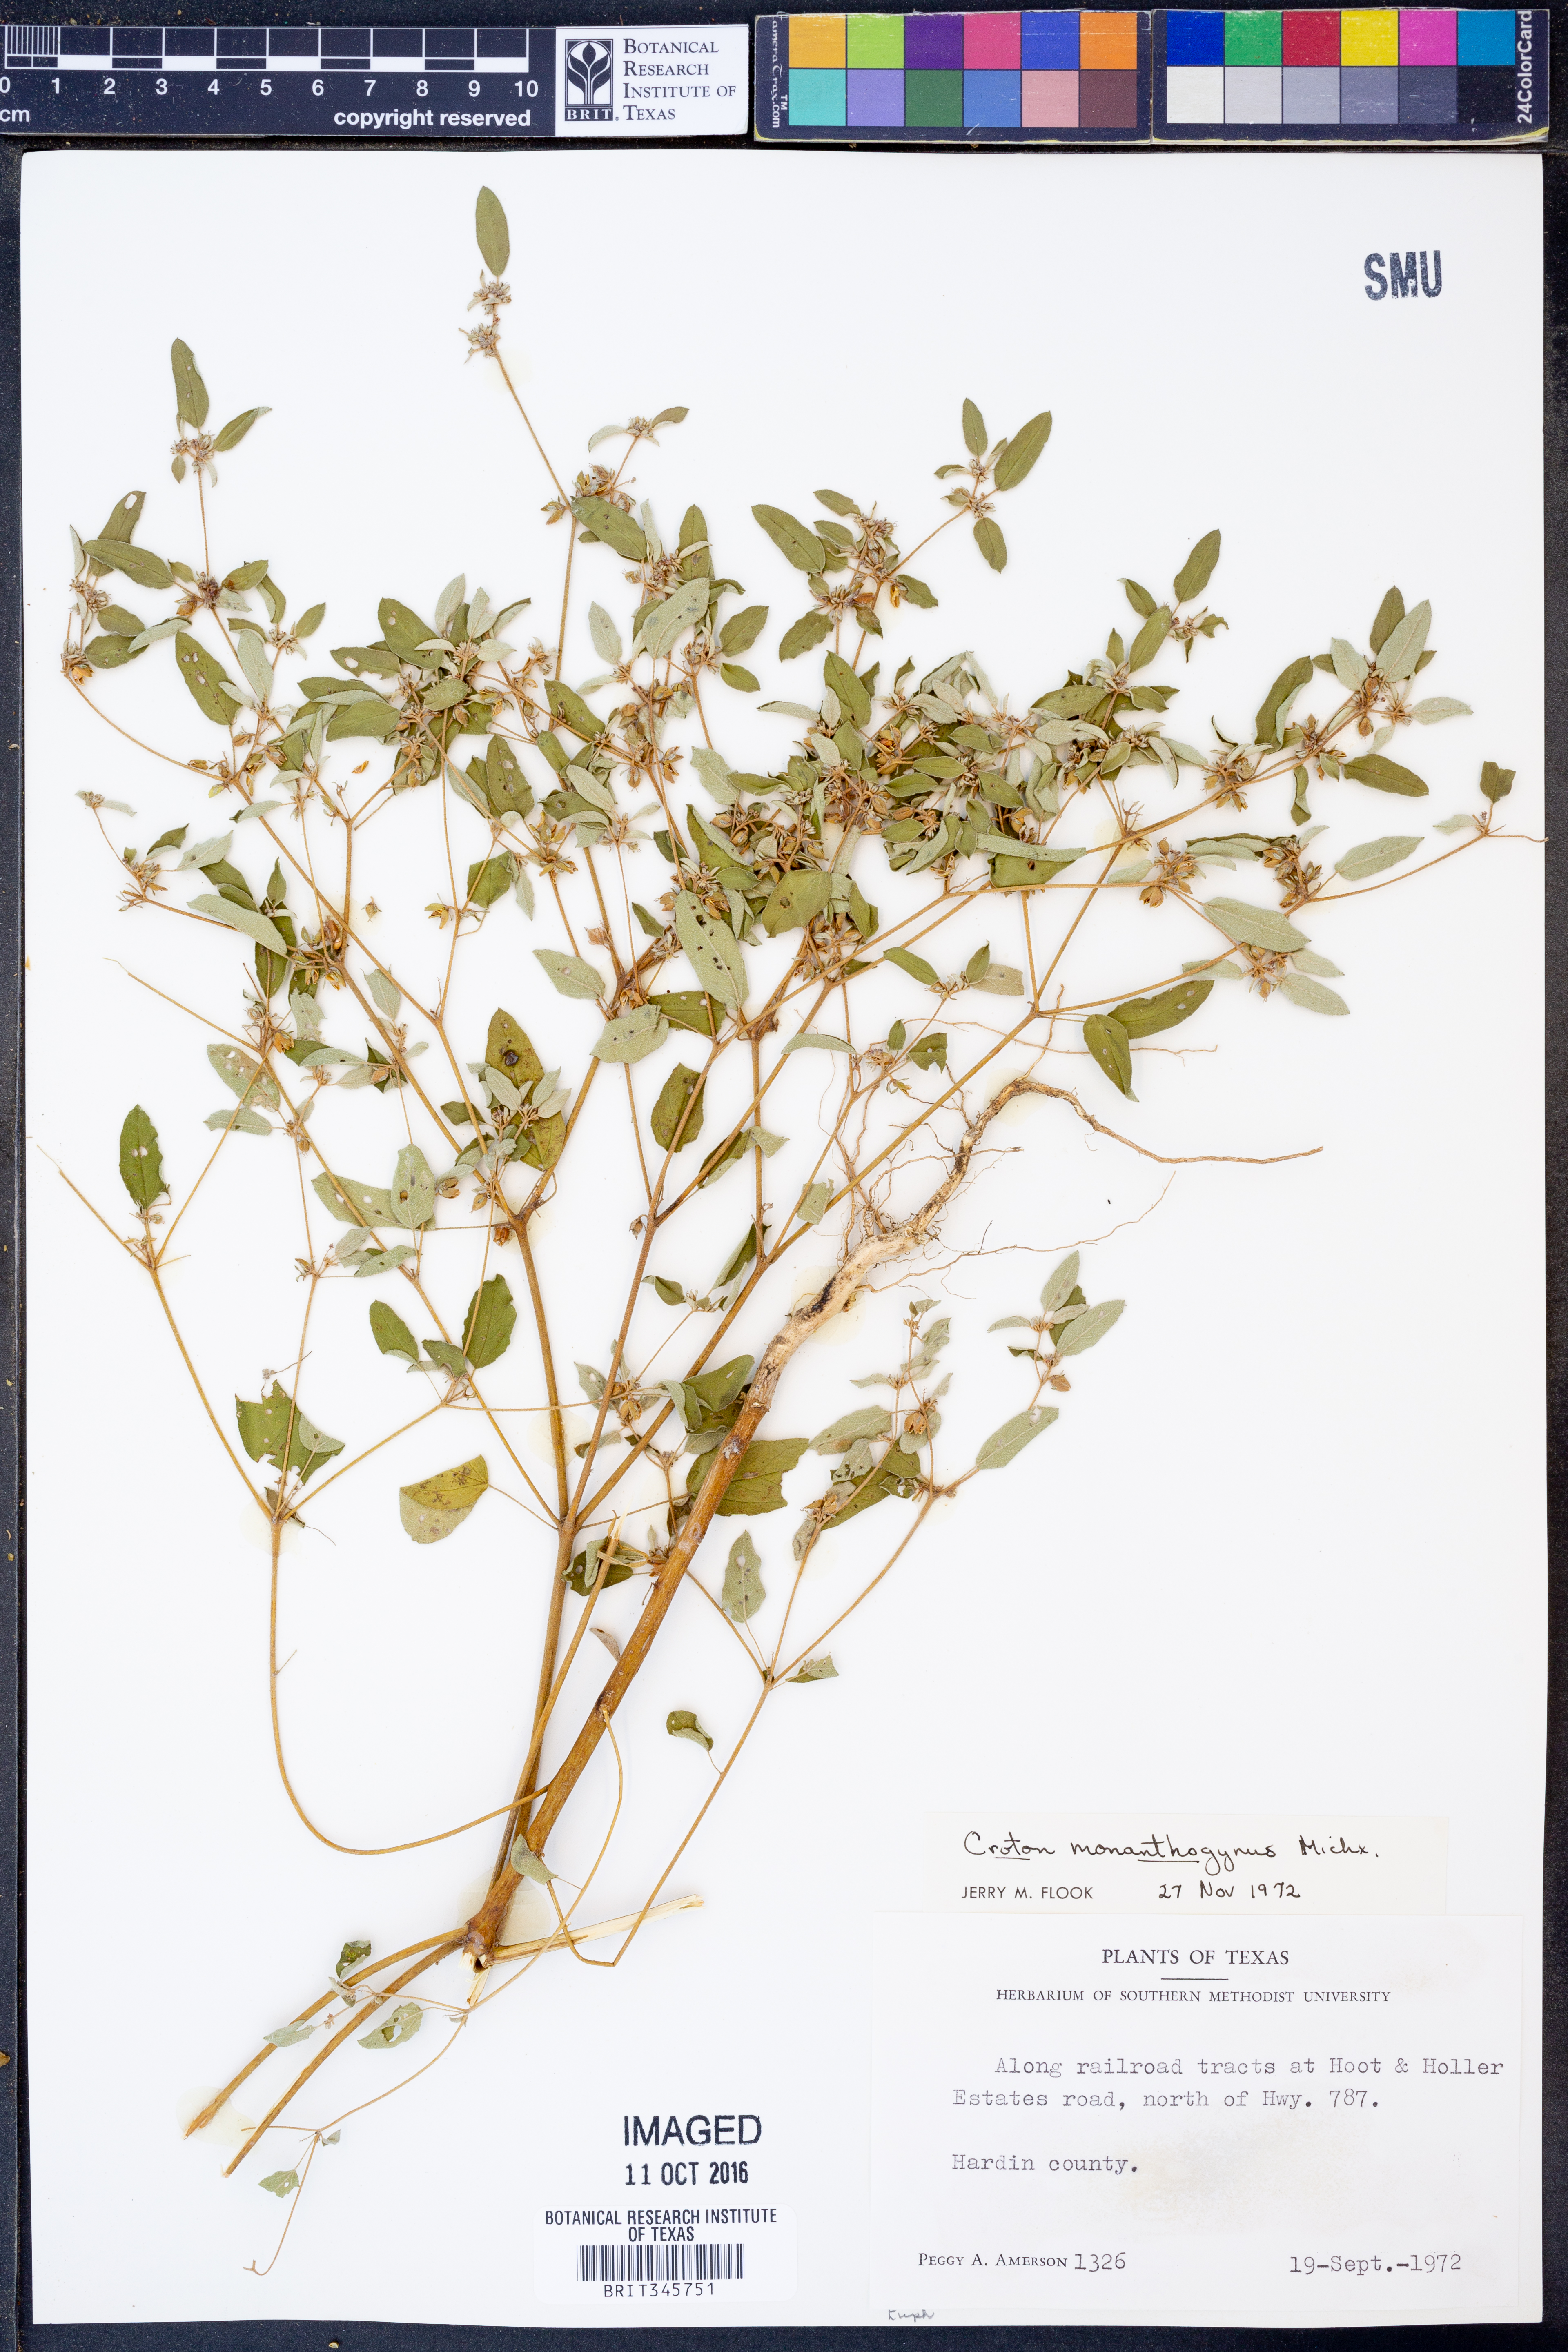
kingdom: Plantae
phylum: Tracheophyta
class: Magnoliopsida
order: Malpighiales
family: Euphorbiaceae
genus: Croton
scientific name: Croton monanthogynus
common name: One-seed croton
